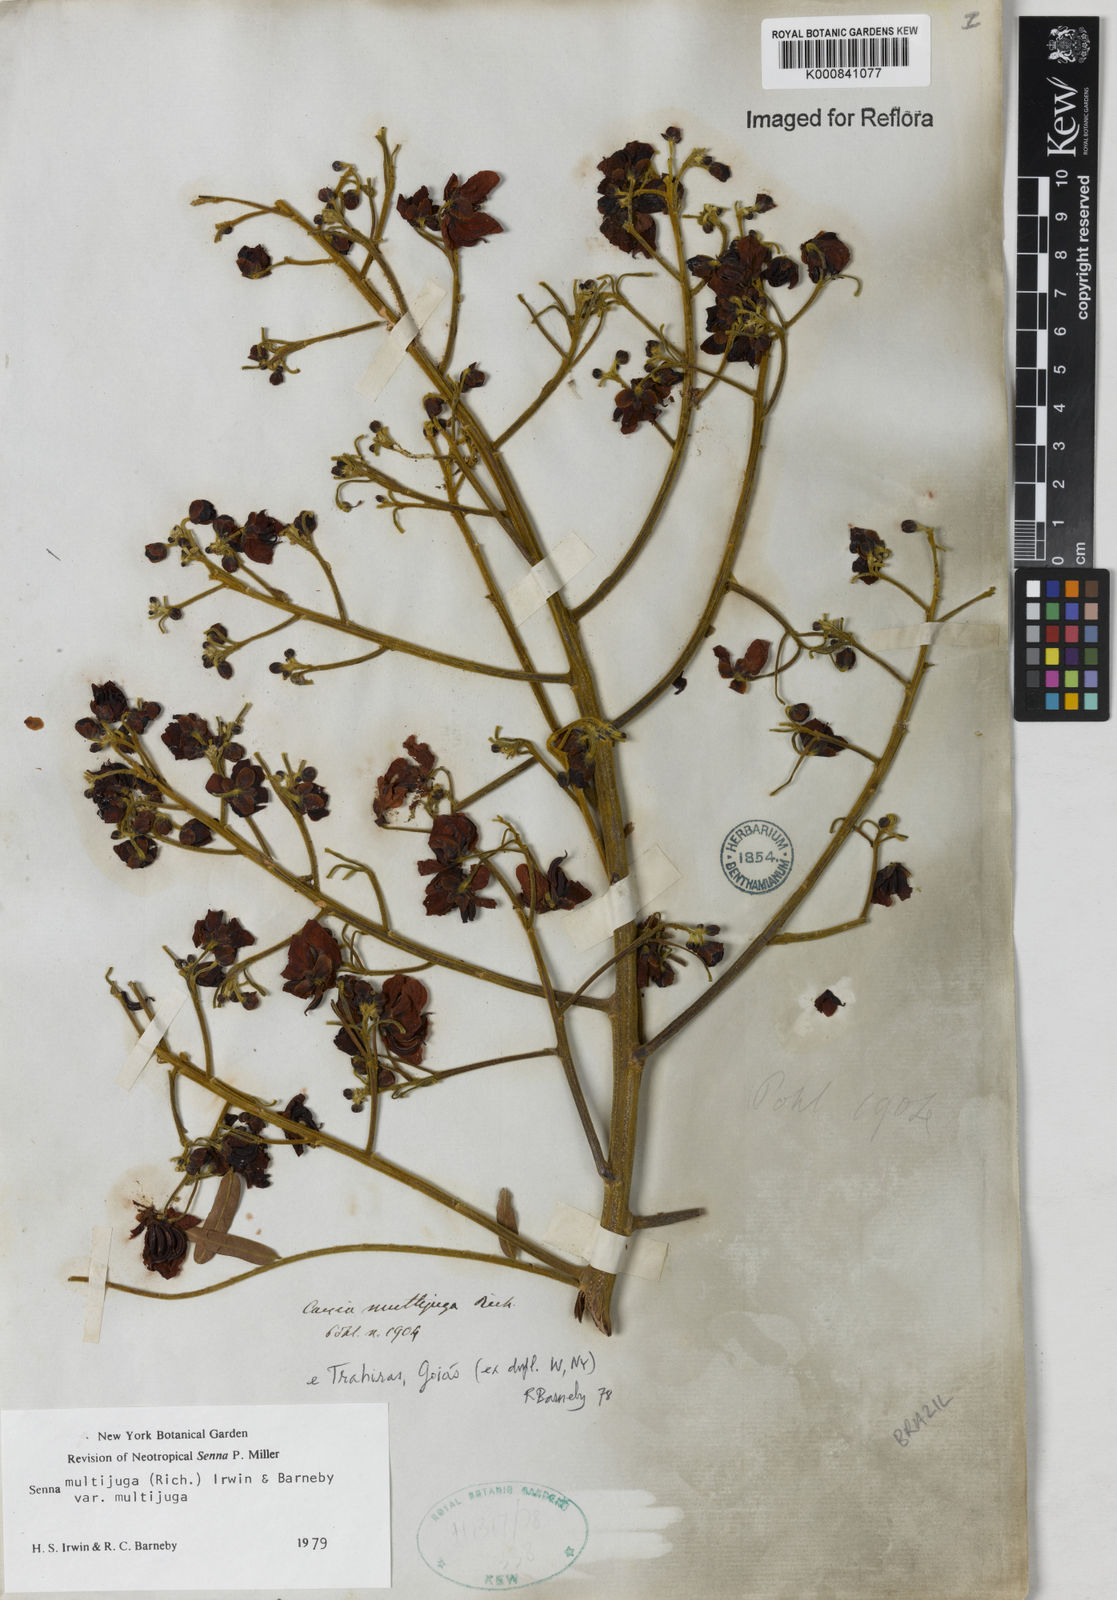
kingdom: Plantae
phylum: Tracheophyta
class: Magnoliopsida
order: Fabales
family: Fabaceae
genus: Senna
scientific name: Senna multijuga
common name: False sicklepod
